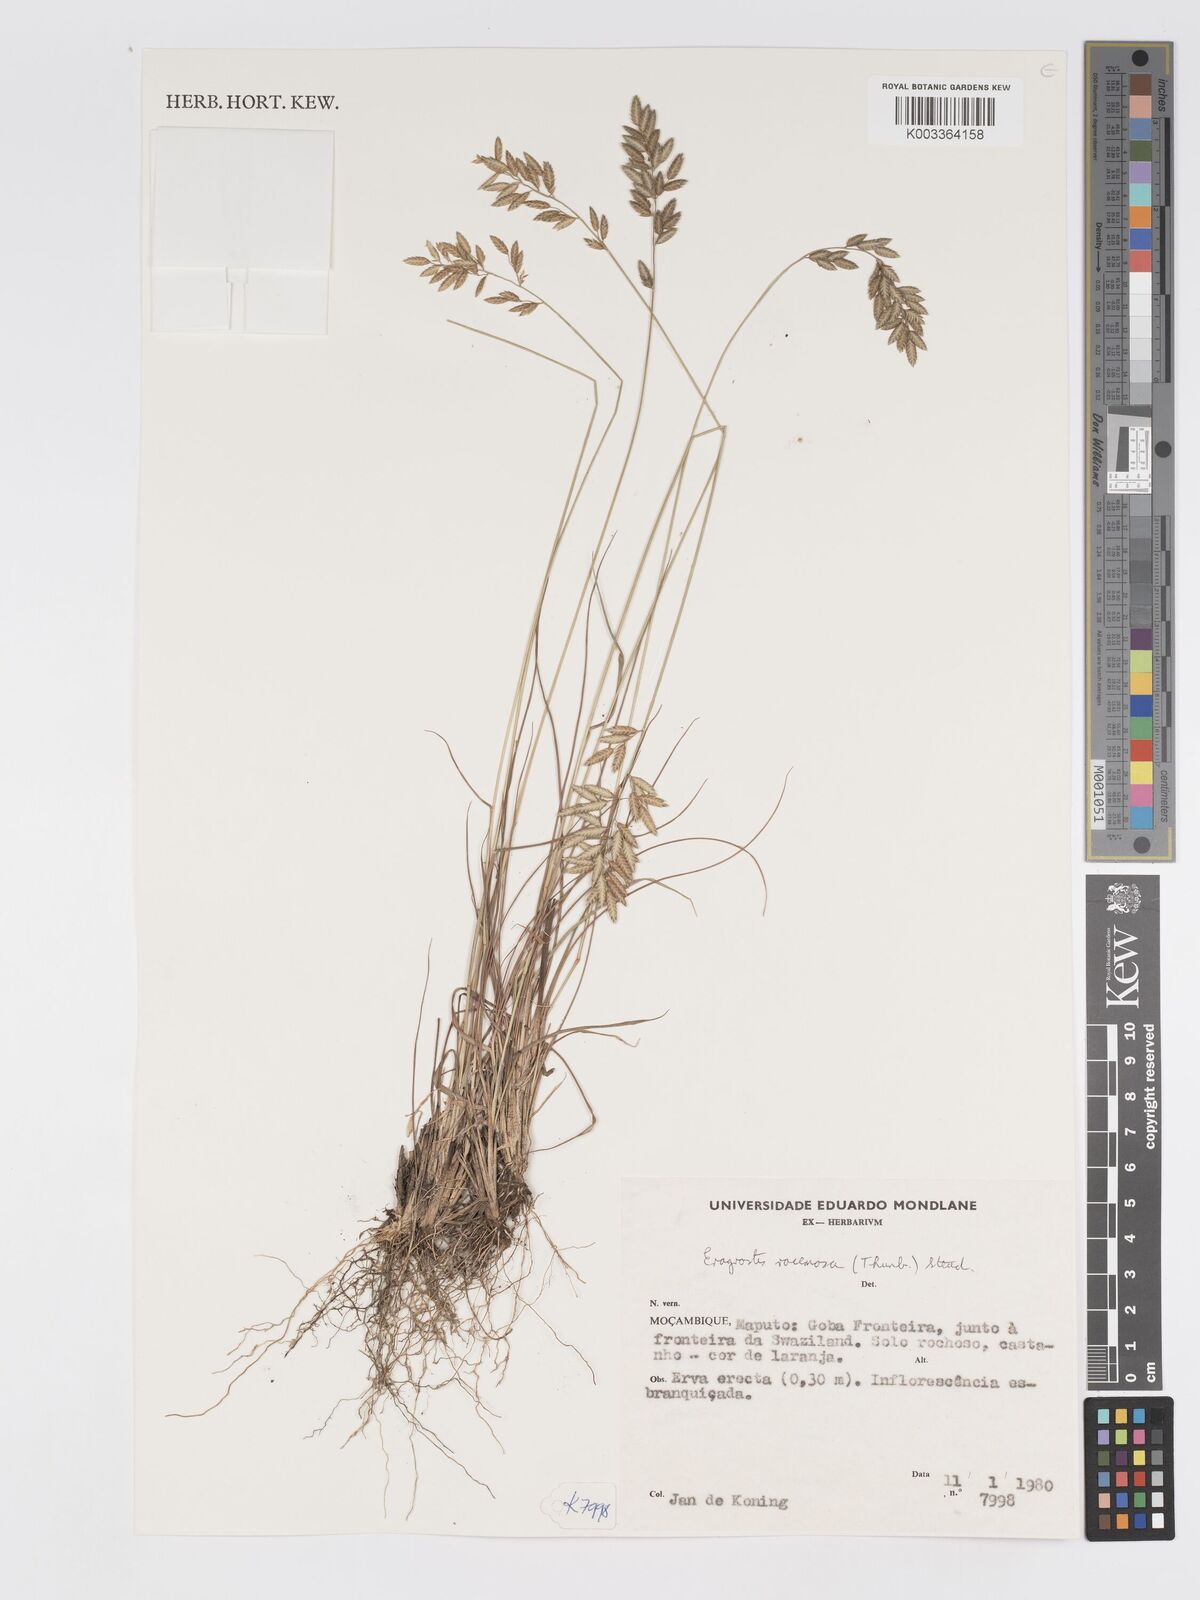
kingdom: Plantae
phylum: Tracheophyta
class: Liliopsida
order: Poales
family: Poaceae
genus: Eragrostis
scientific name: Eragrostis racemosa
